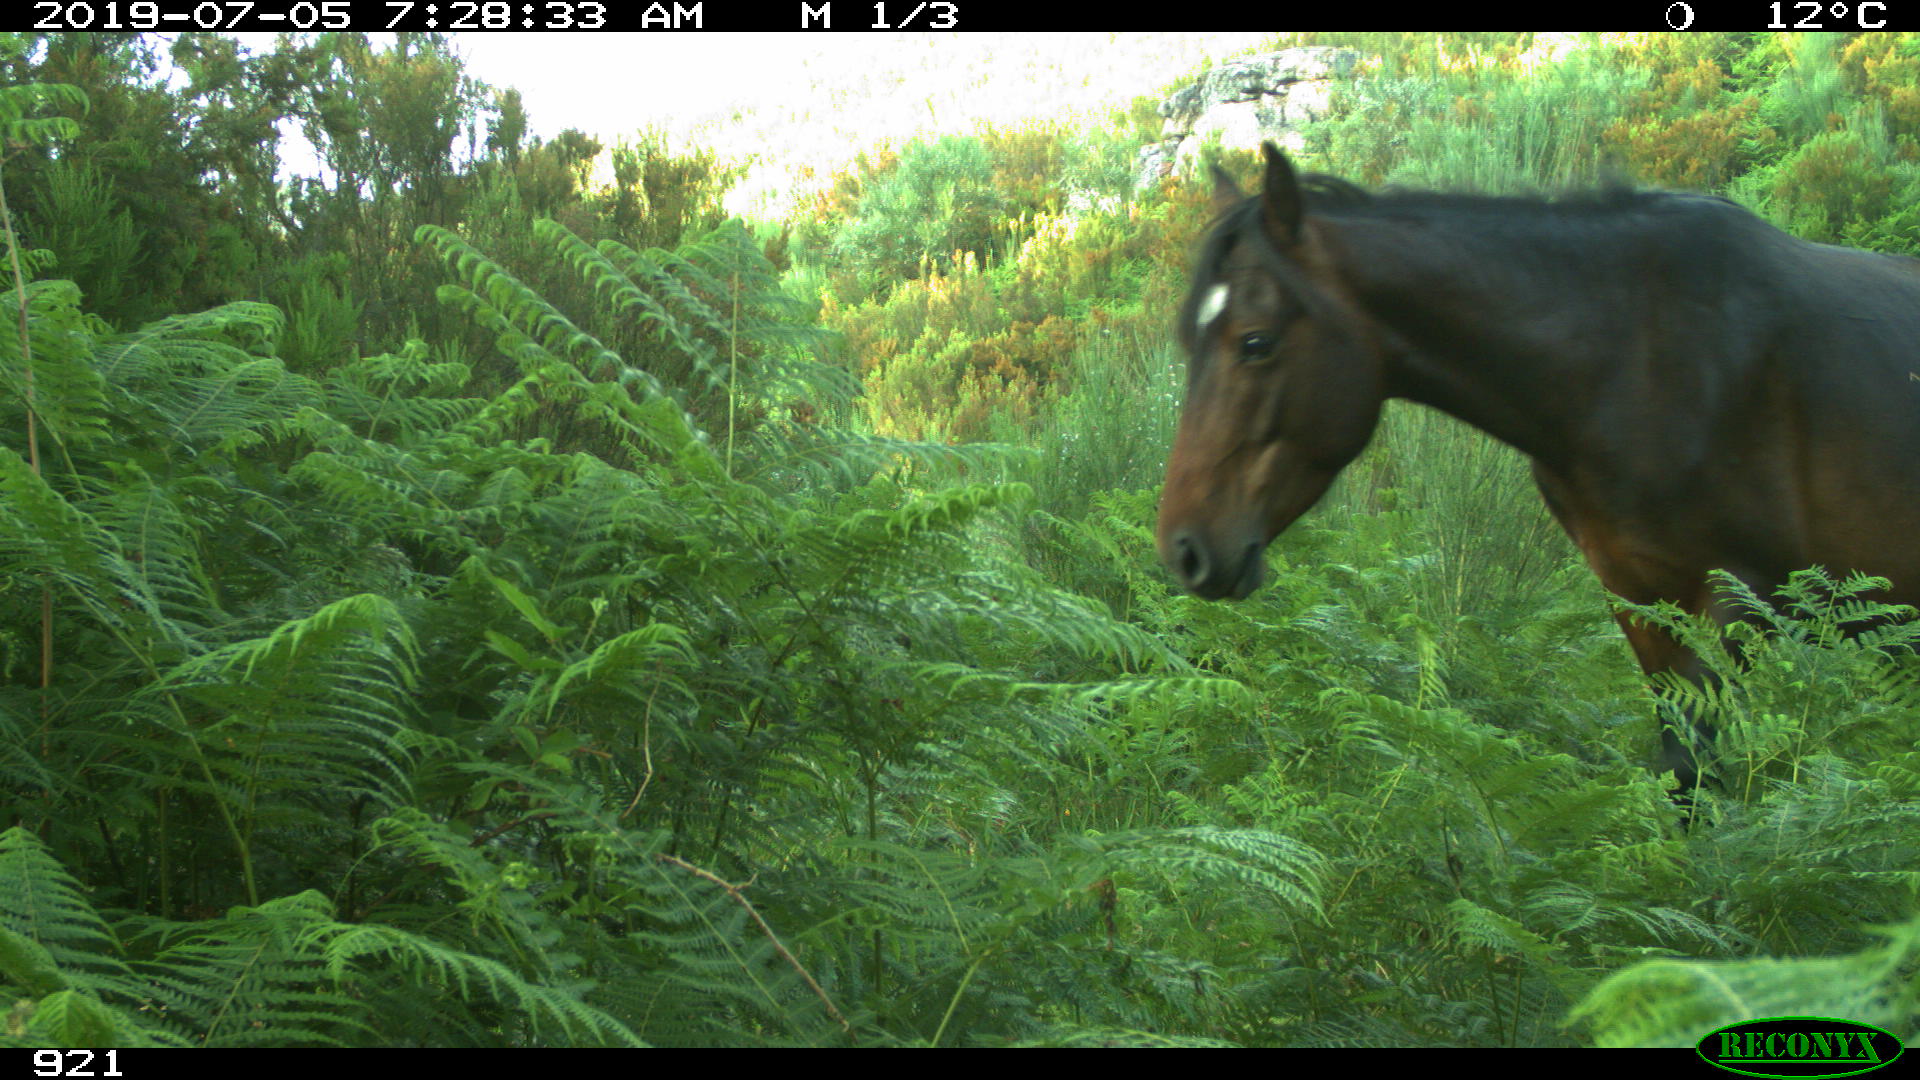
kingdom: Animalia
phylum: Chordata
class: Mammalia
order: Perissodactyla
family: Equidae
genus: Equus
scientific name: Equus caballus
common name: Horse
